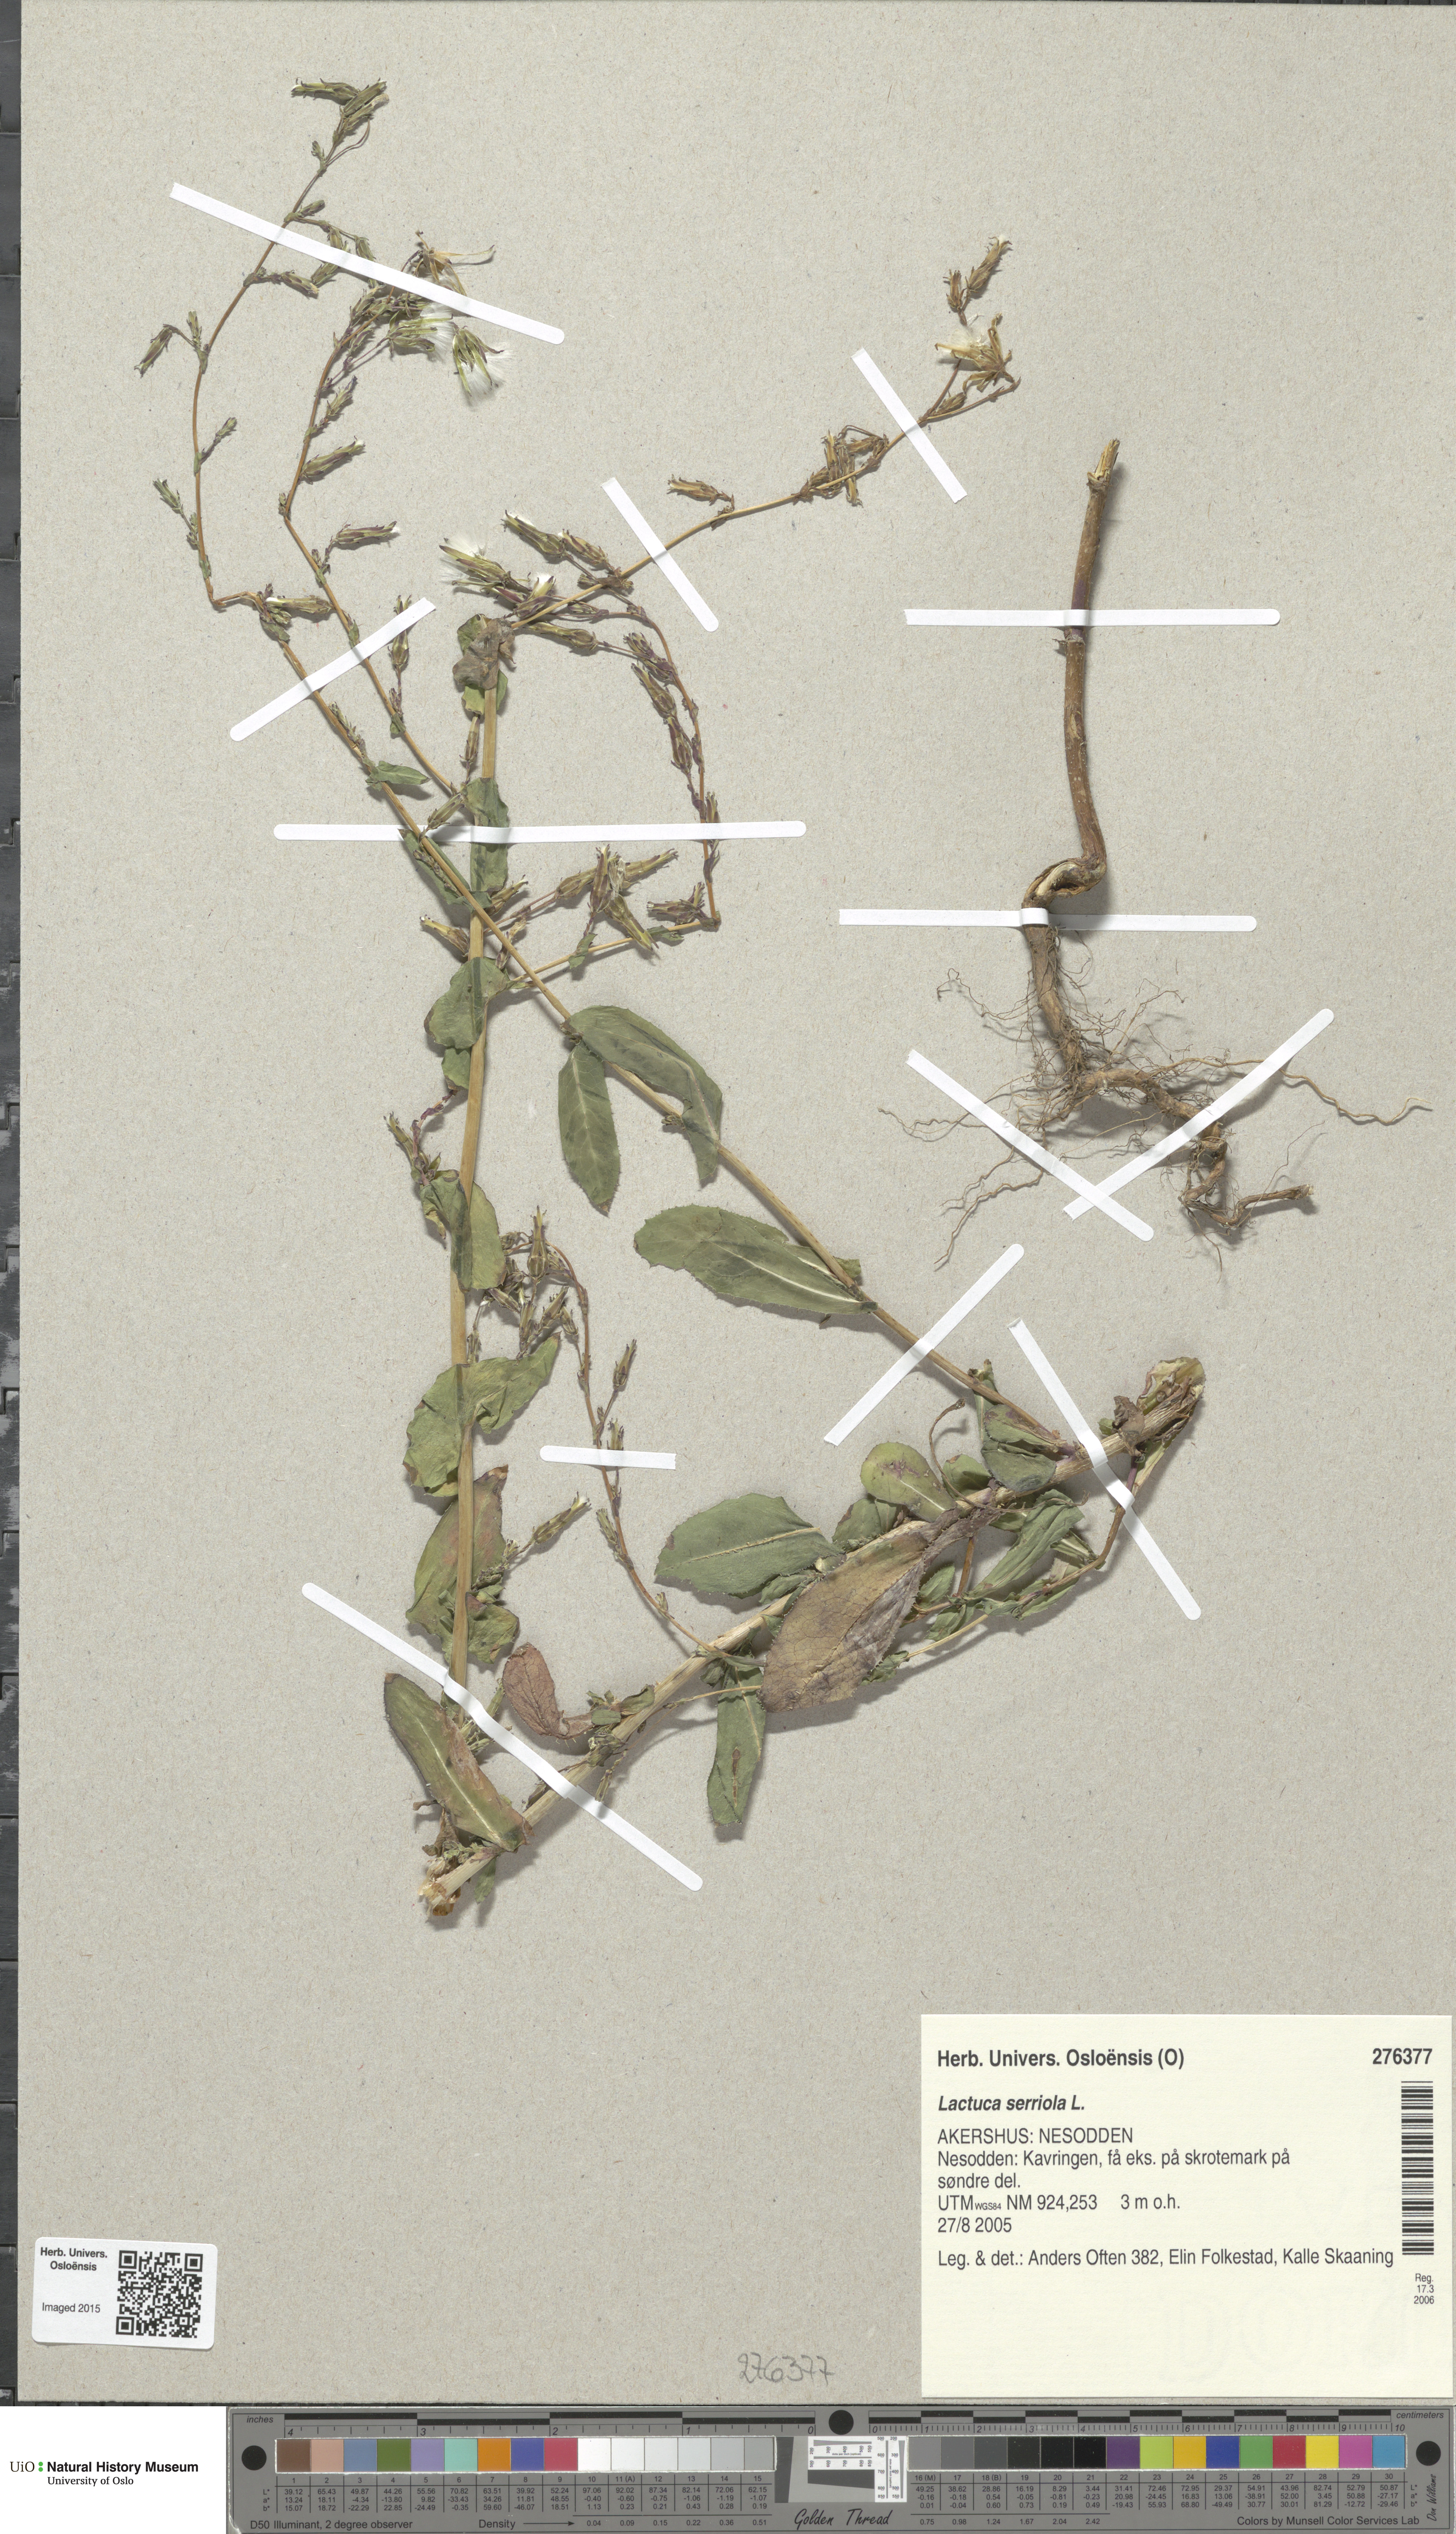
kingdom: Plantae
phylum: Tracheophyta
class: Magnoliopsida
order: Asterales
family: Asteraceae
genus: Lactuca
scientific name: Lactuca serriola
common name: Prickly lettuce
